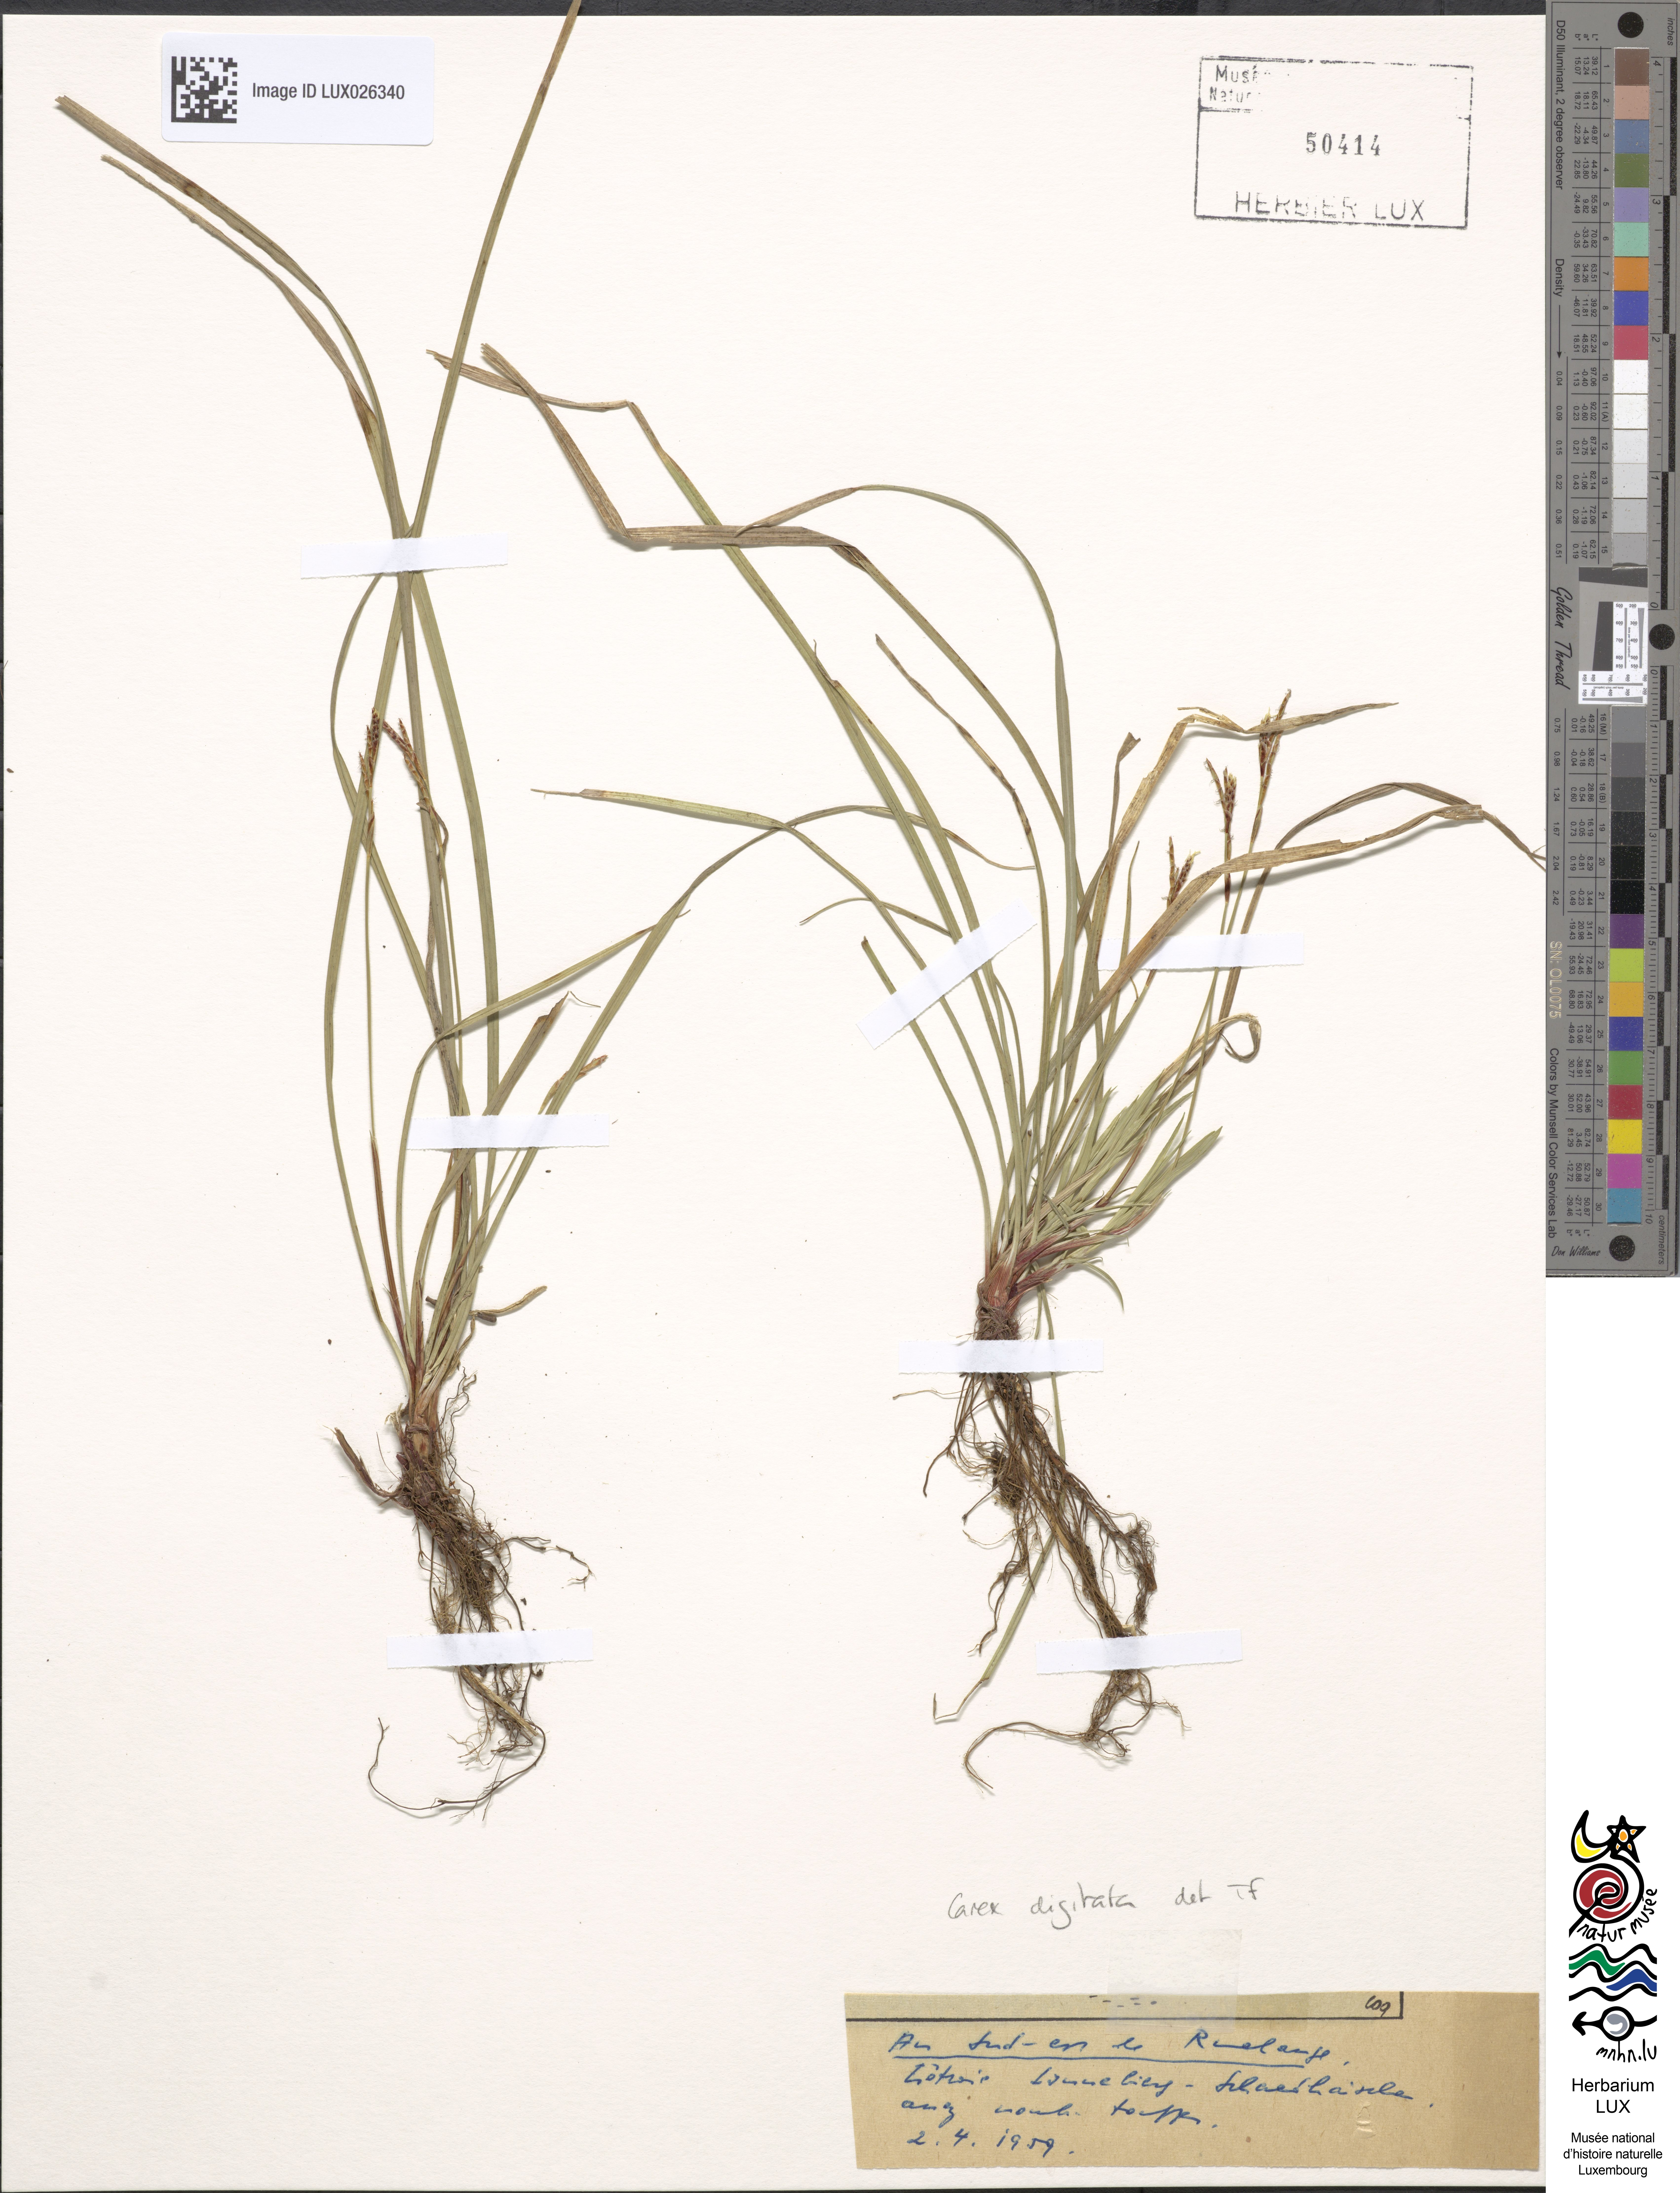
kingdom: Plantae
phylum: Tracheophyta
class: Liliopsida
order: Poales
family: Cyperaceae
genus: Carex
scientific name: Carex digitata
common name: Fingered sedge
